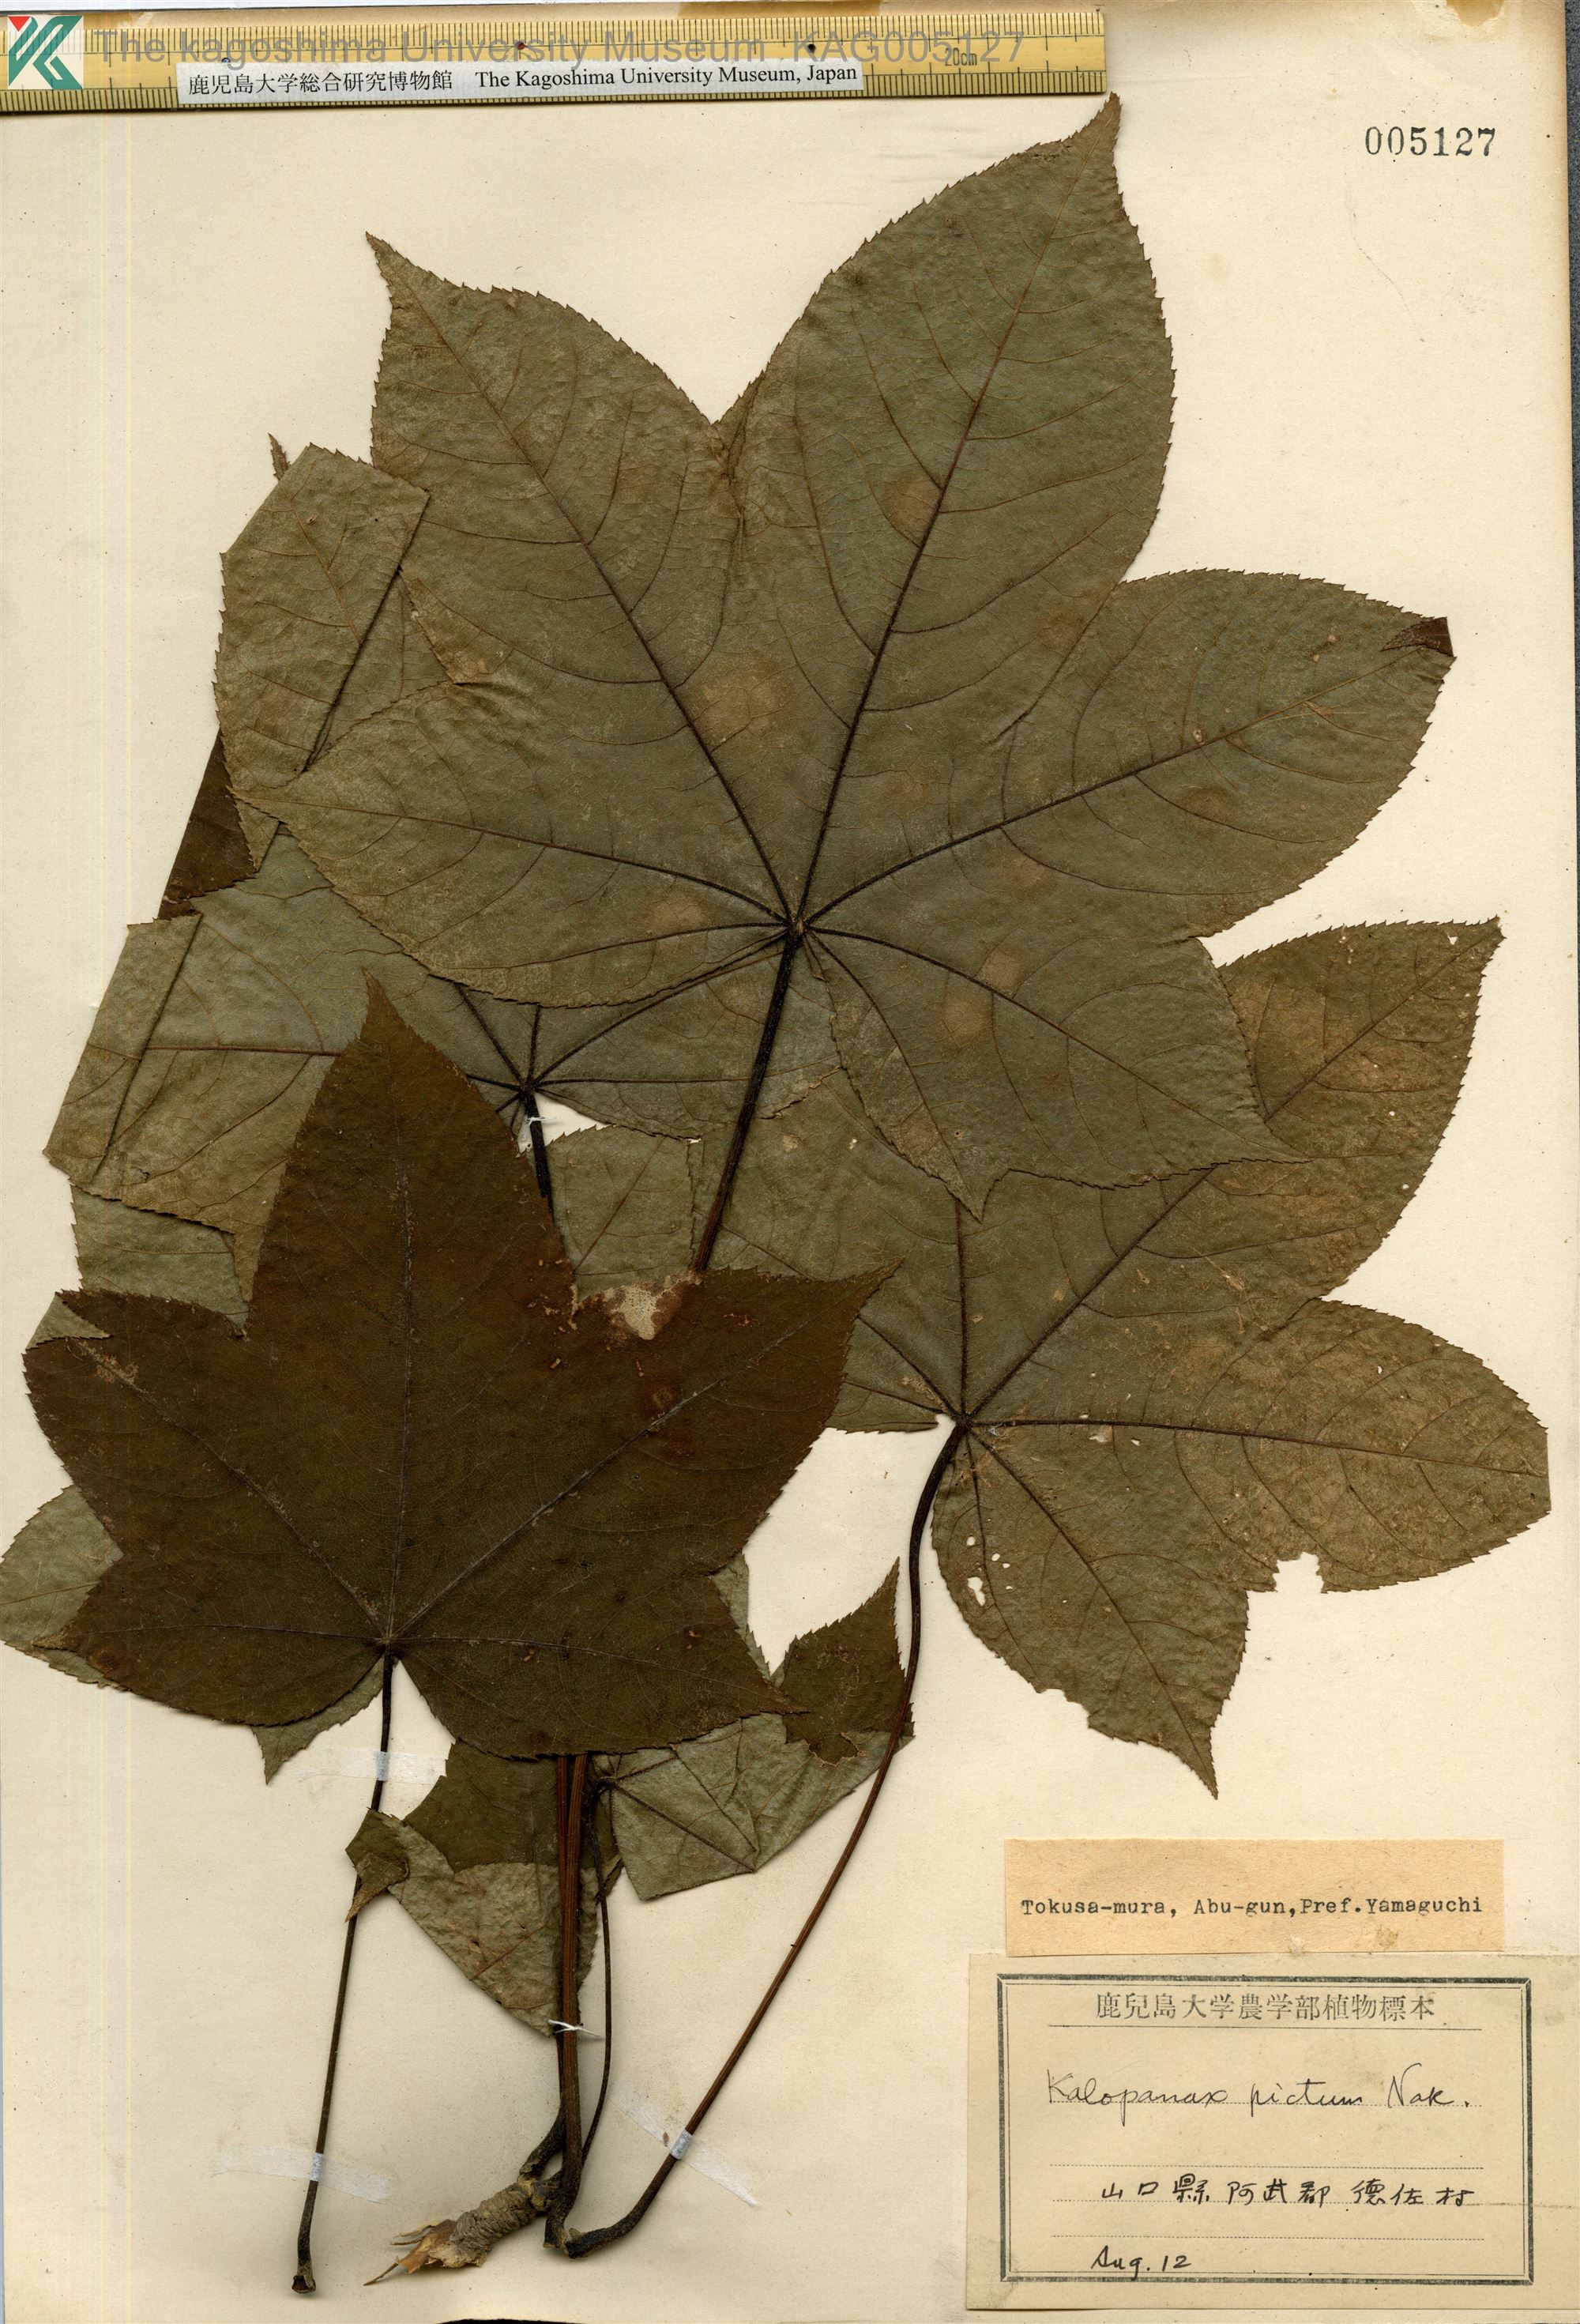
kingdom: Plantae
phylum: Tracheophyta
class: Magnoliopsida
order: Apiales
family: Araliaceae
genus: Kalopanax
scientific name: Kalopanax septemlobus
